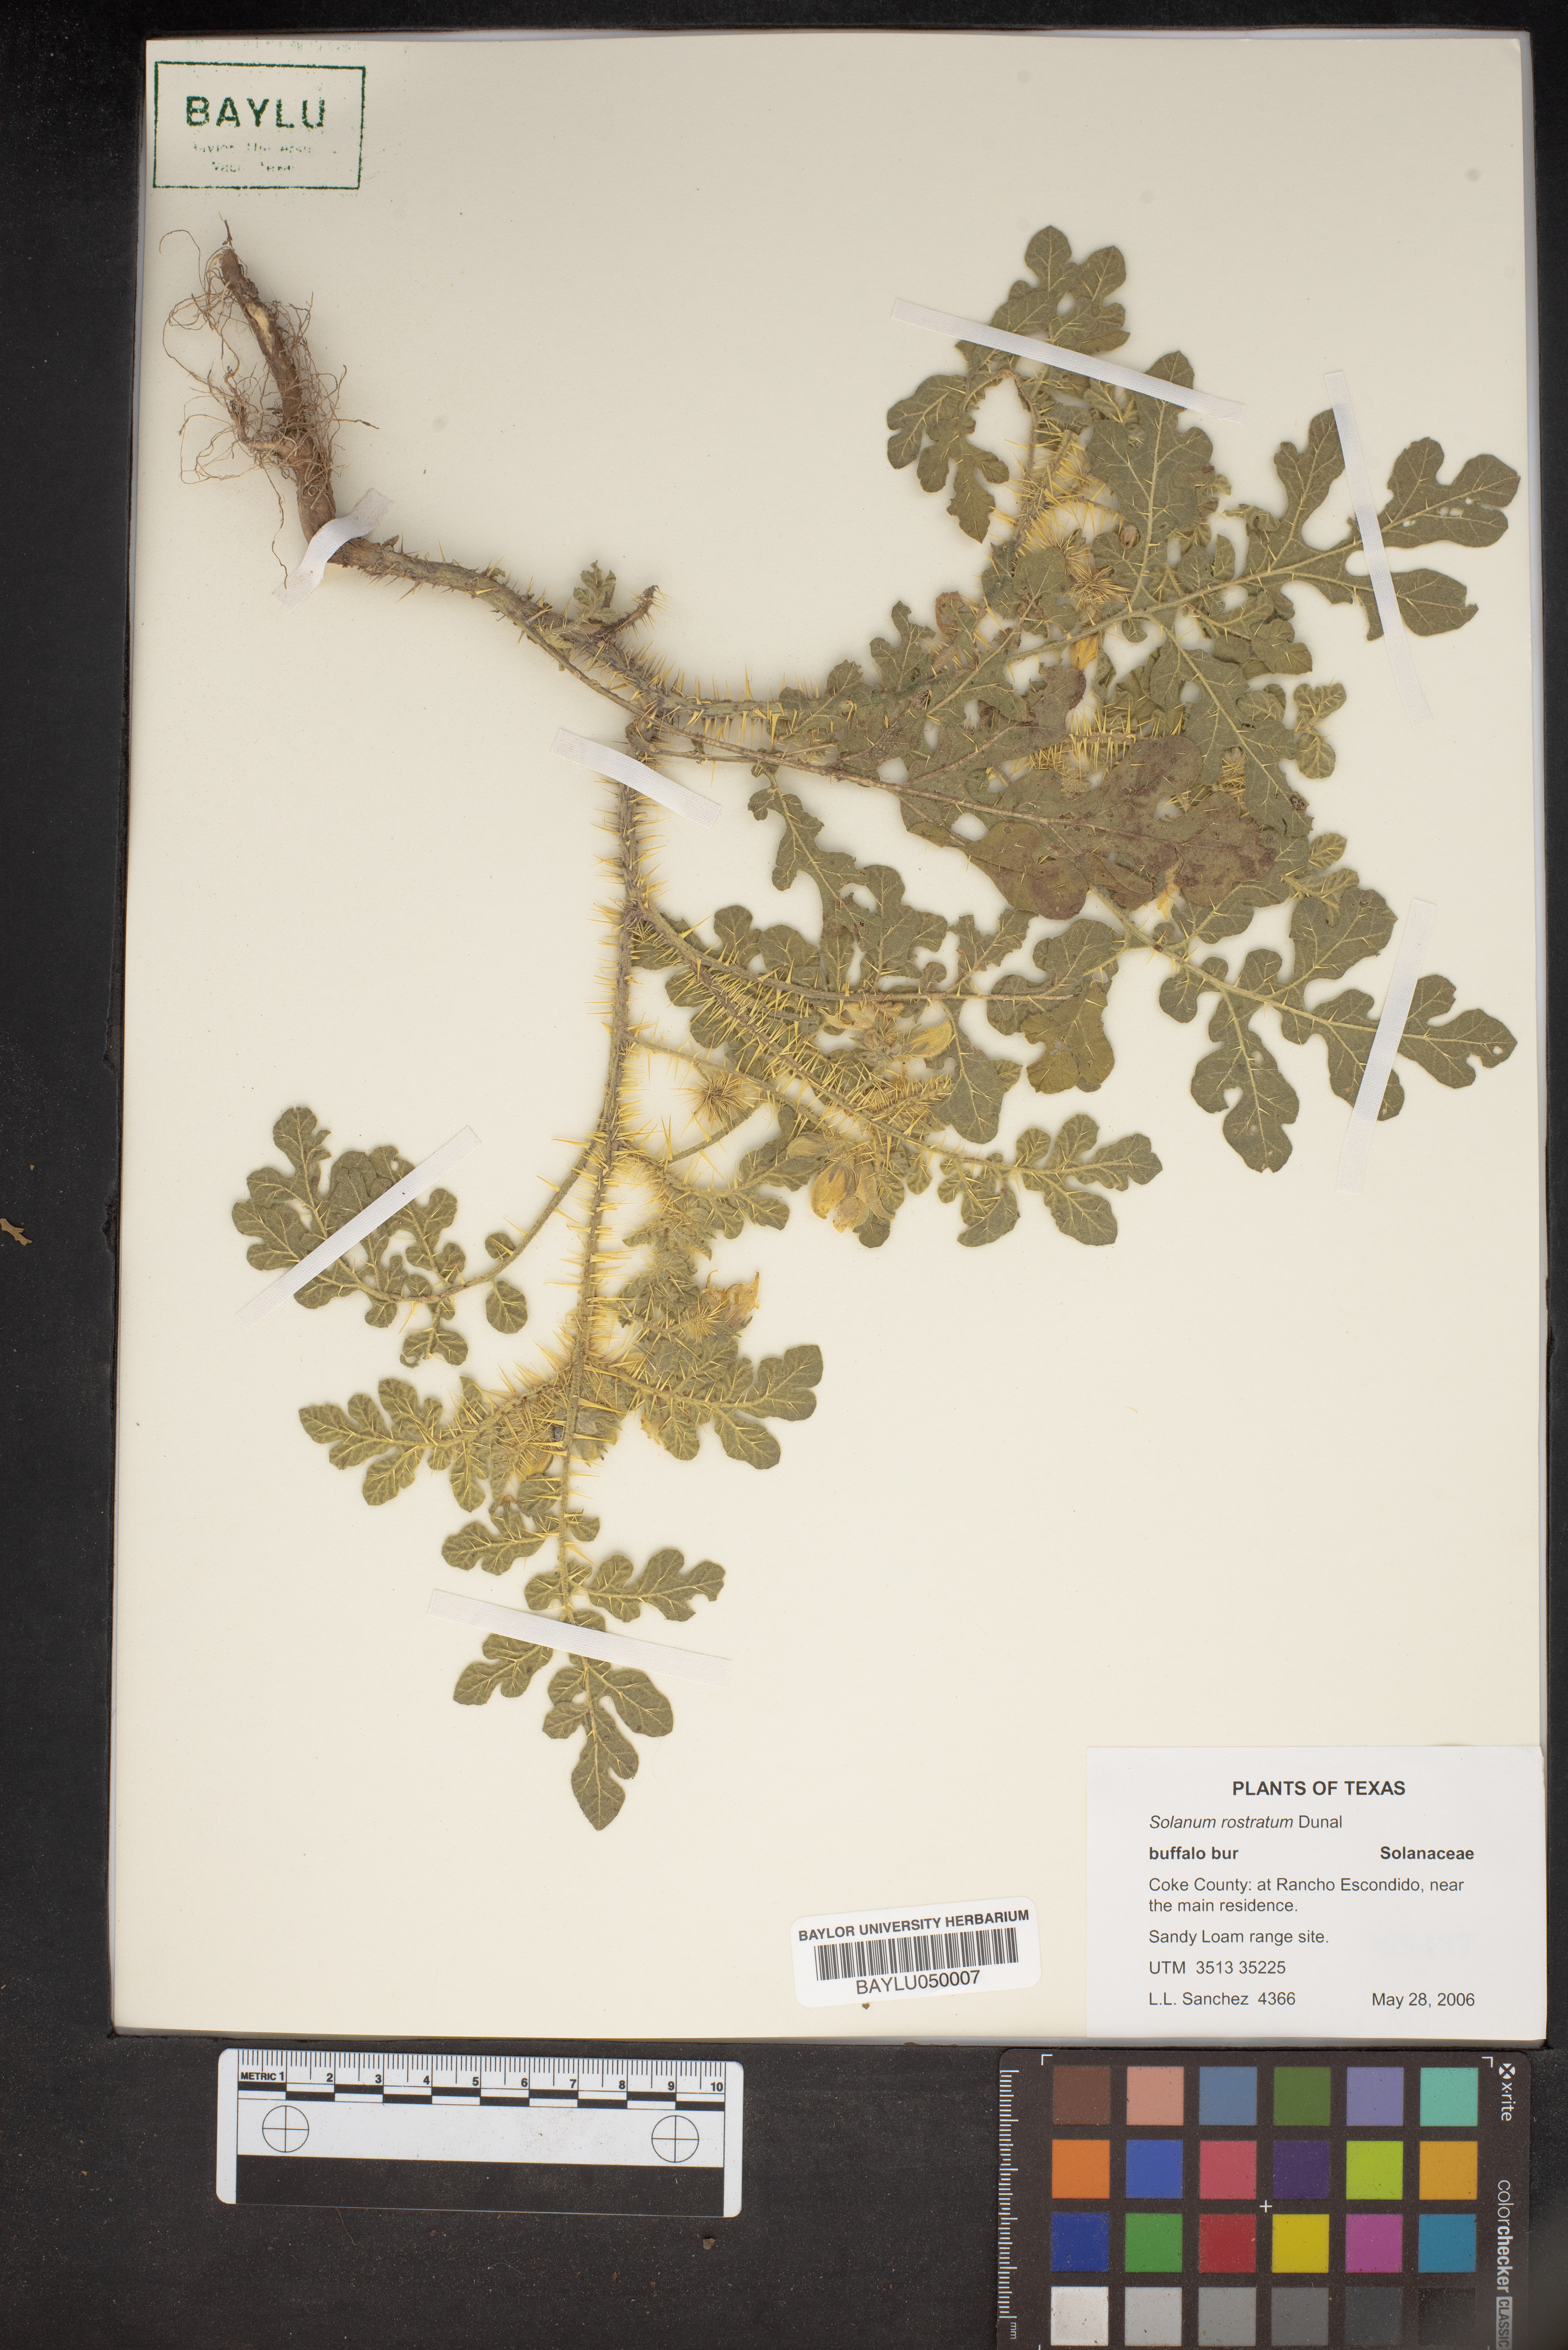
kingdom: Plantae
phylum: Tracheophyta
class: Magnoliopsida
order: Solanales
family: Solanaceae
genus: Solanum
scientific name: Solanum angustifolium
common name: Buffalobur nightshade
